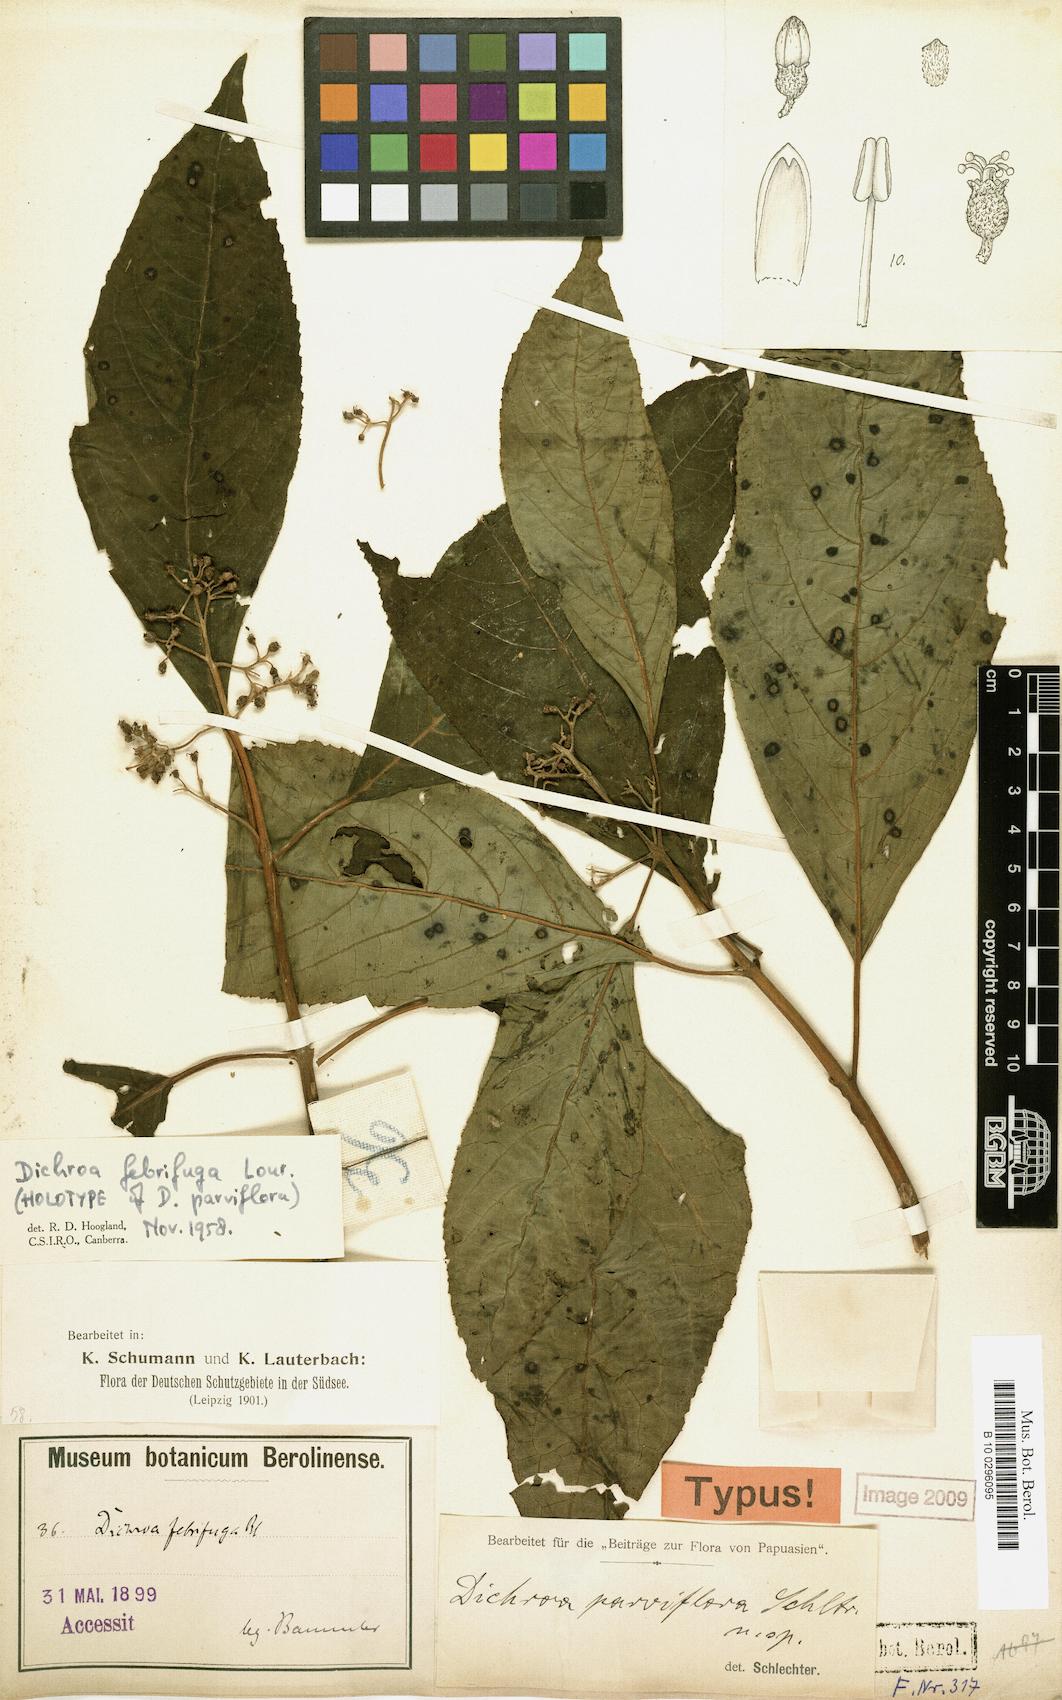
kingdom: Plantae
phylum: Tracheophyta
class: Magnoliopsida
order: Cornales
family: Hydrangeaceae
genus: Hydrangea
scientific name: Hydrangea febrifuga
